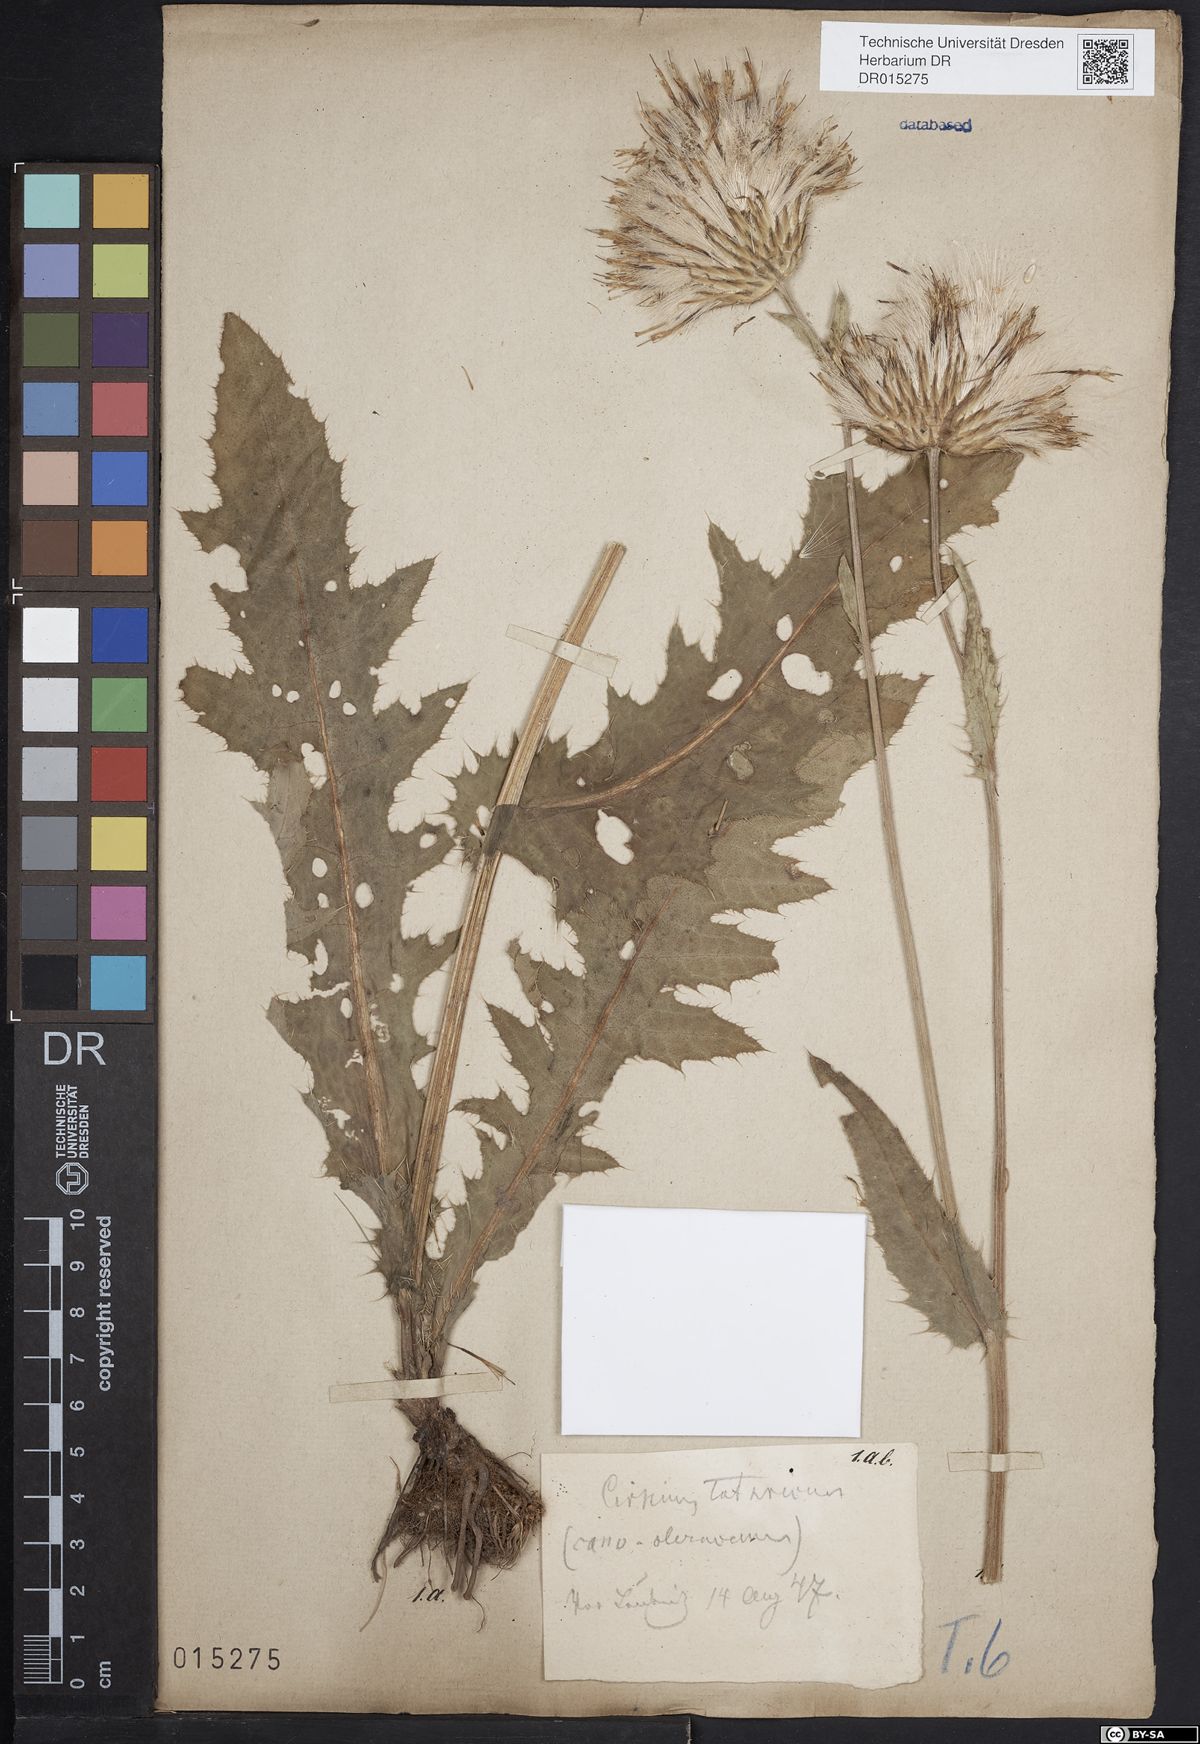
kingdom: Plantae
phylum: Tracheophyta
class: Magnoliopsida
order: Asterales
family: Asteraceae
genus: Cirsium
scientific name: Cirsium tataricum
